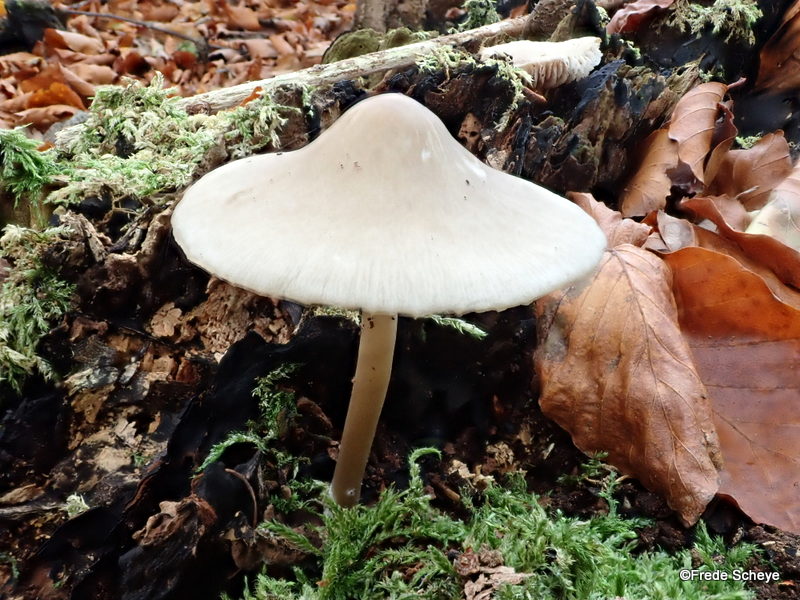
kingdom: Fungi
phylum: Basidiomycota
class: Agaricomycetes
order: Agaricales
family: Mycenaceae
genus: Mycena
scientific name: Mycena galericulata
